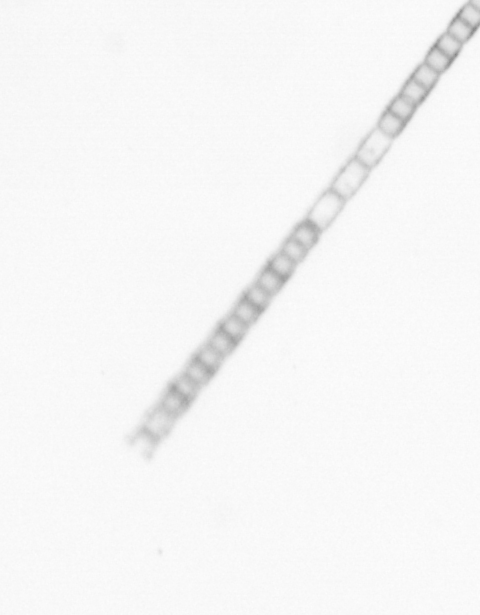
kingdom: Chromista
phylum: Ochrophyta
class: Bacillariophyceae
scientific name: Bacillariophyceae
